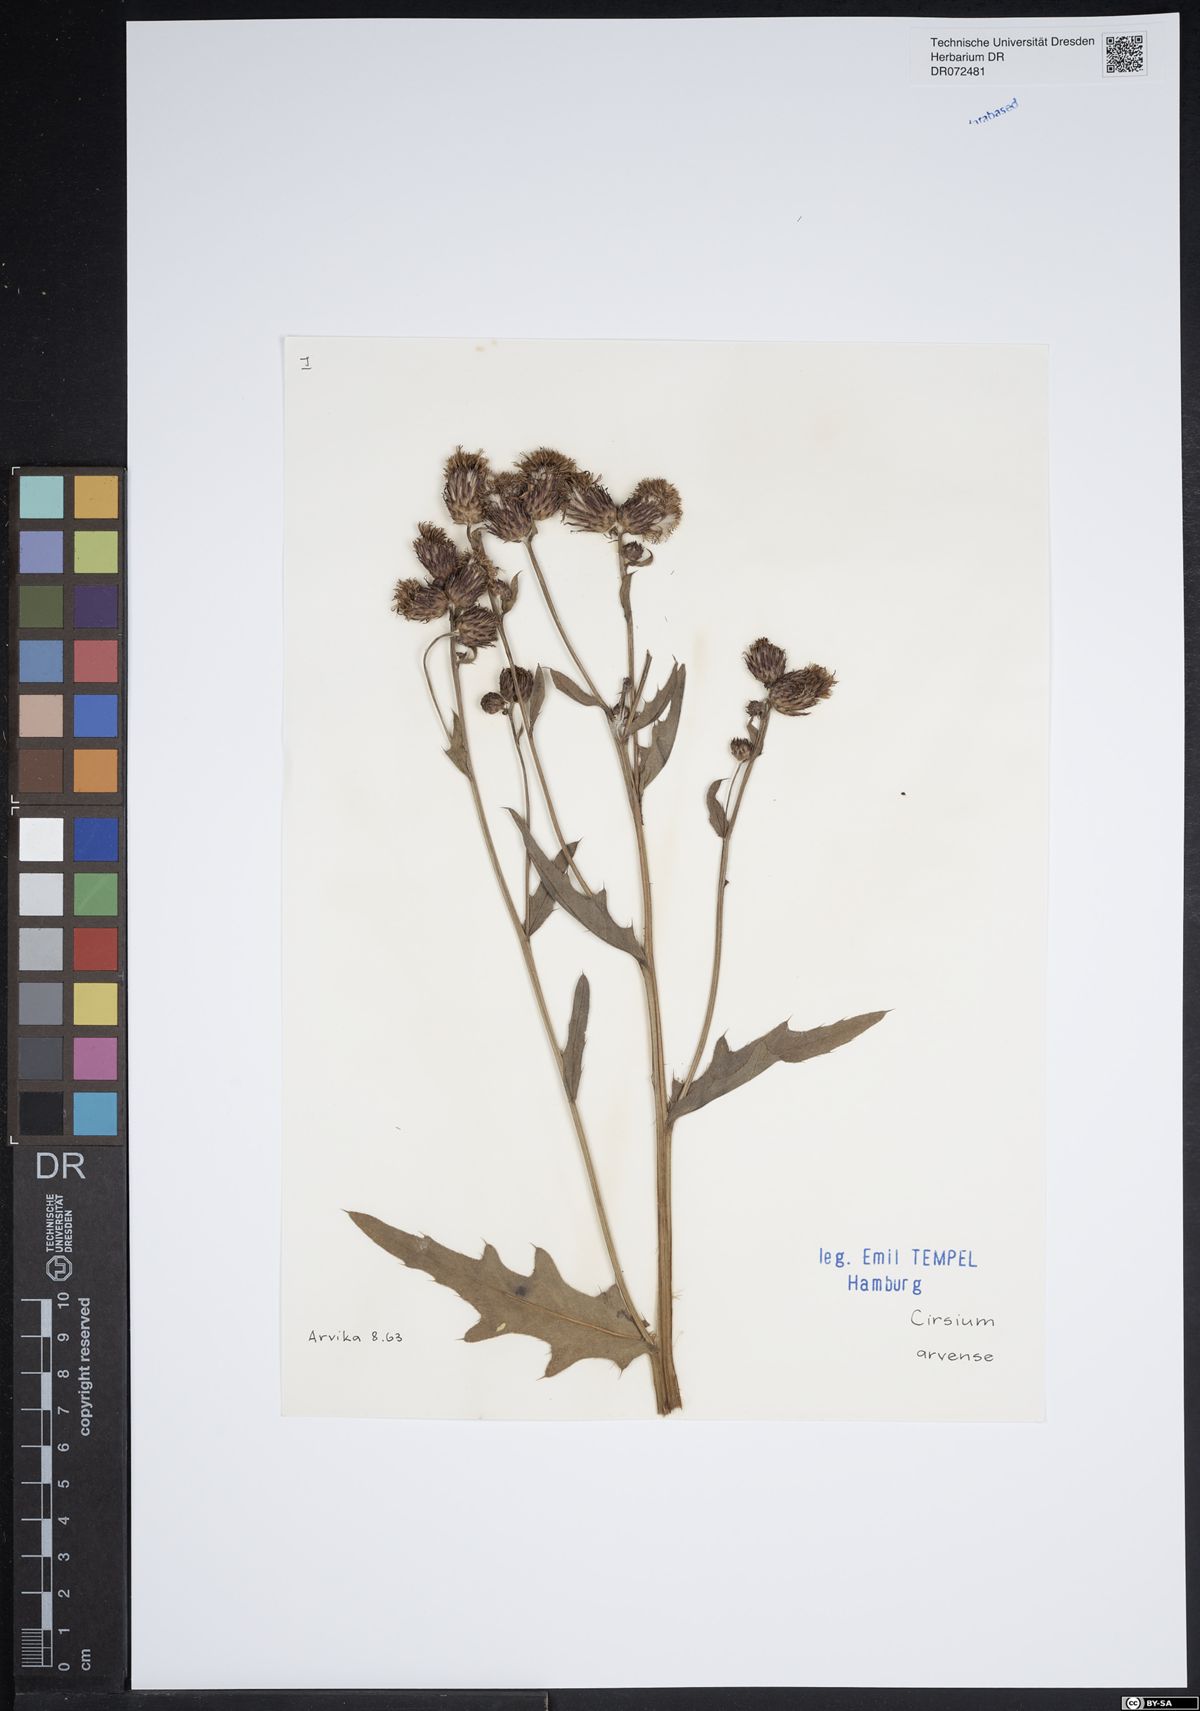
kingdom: Plantae
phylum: Tracheophyta
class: Magnoliopsida
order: Asterales
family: Asteraceae
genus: Cirsium
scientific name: Cirsium arvense
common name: Creeping thistle
